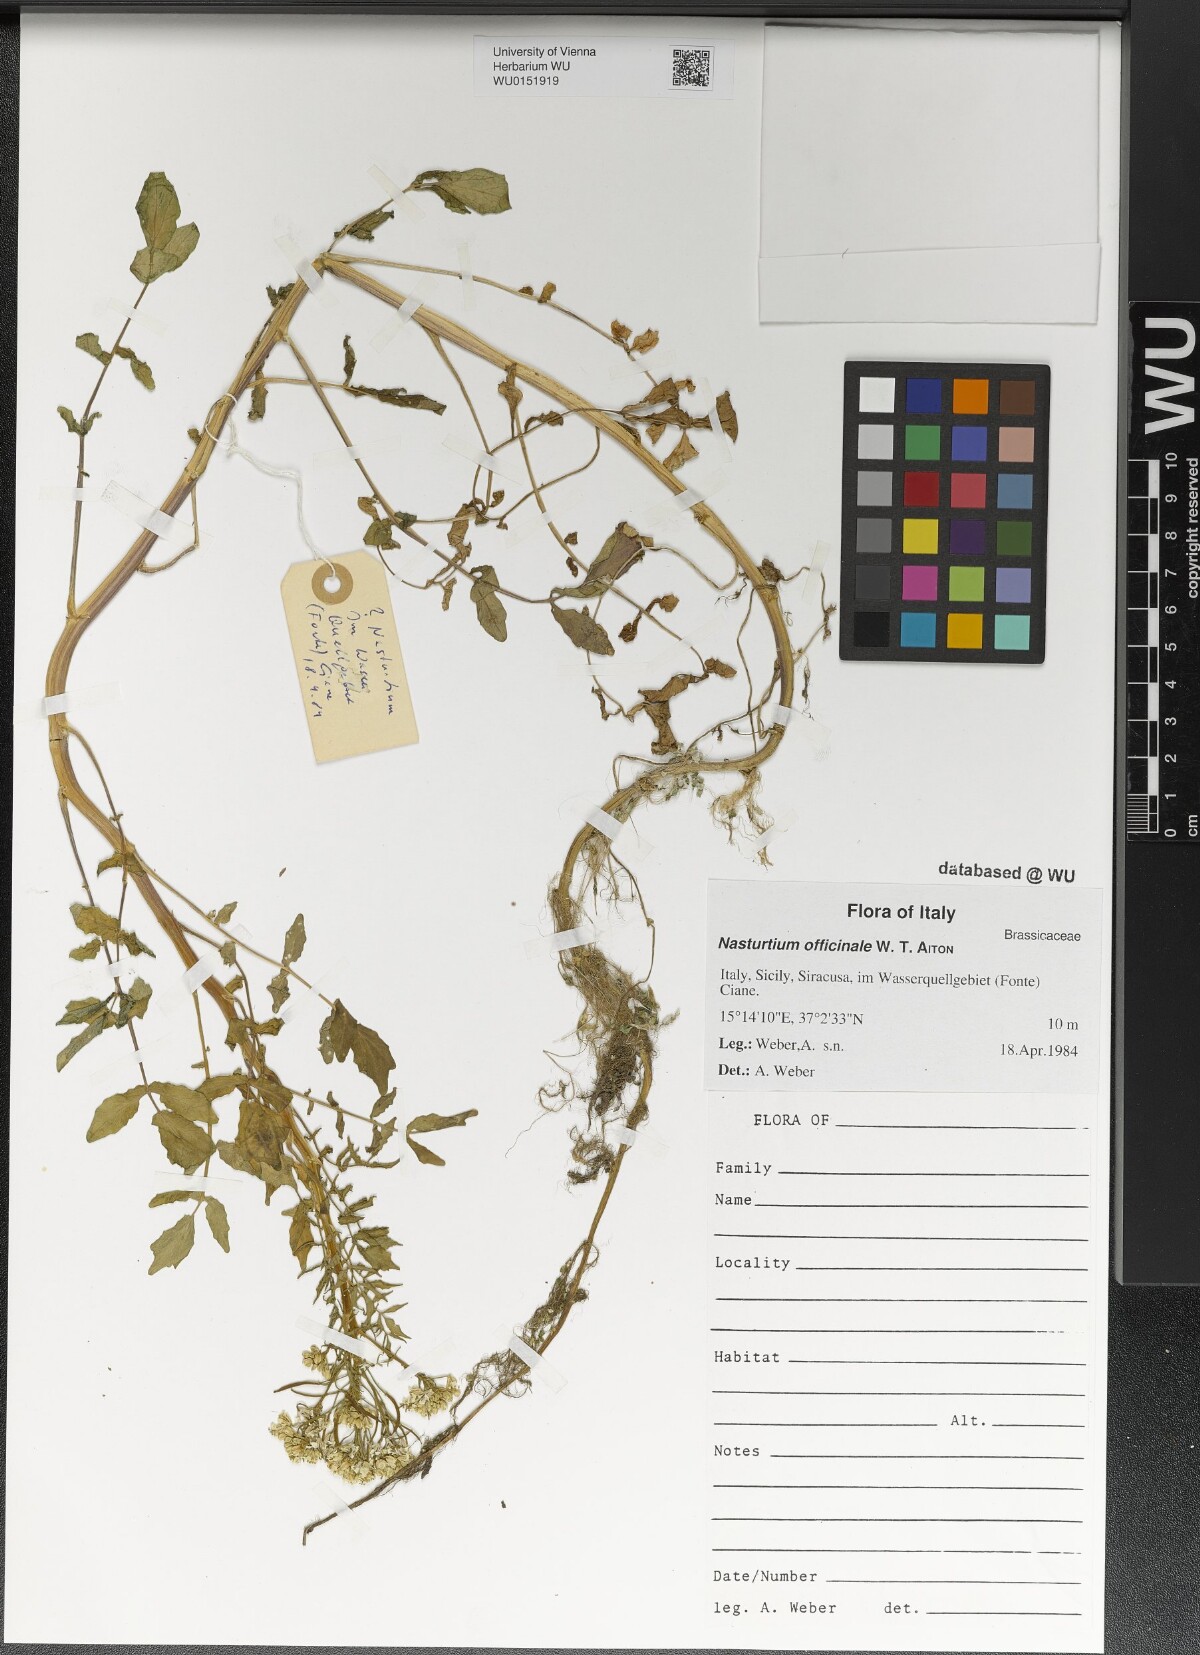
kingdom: Plantae
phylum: Tracheophyta
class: Magnoliopsida
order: Brassicales
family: Brassicaceae
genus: Nasturtium
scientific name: Nasturtium officinale
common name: Watercress
